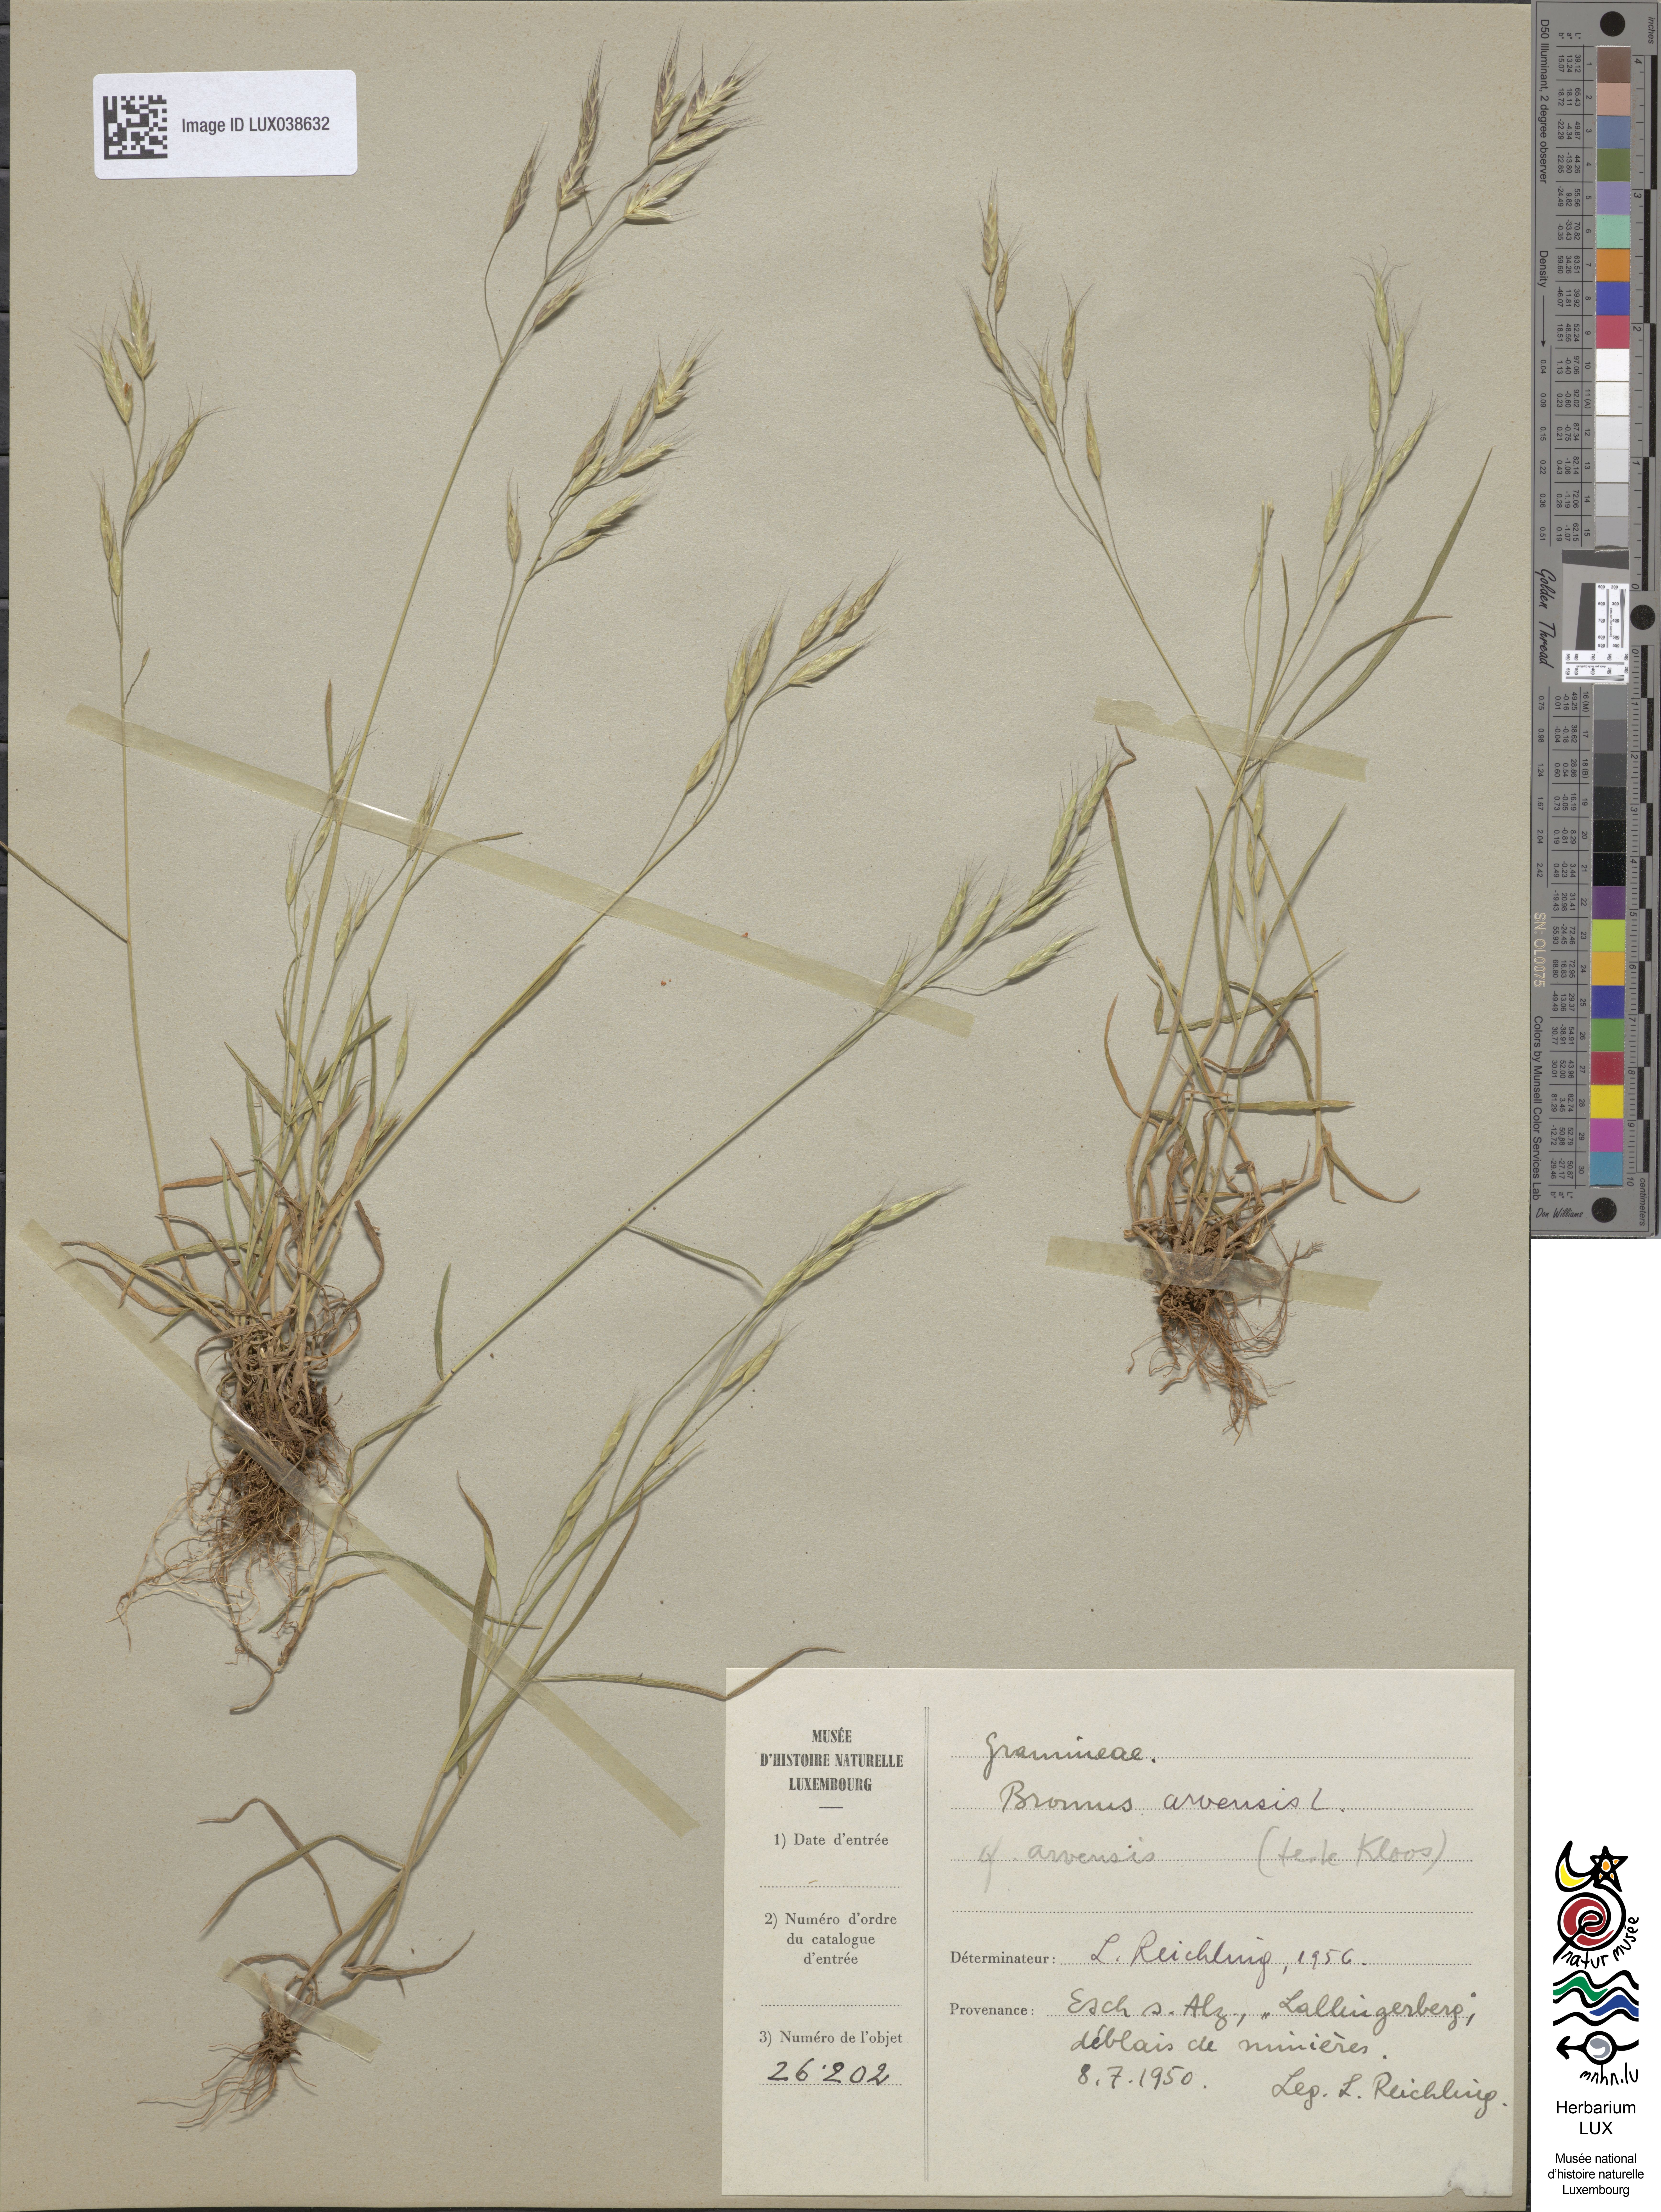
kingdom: Plantae
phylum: Tracheophyta
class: Liliopsida
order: Poales
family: Poaceae
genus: Bromus
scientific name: Bromus arvensis
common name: Field brome
